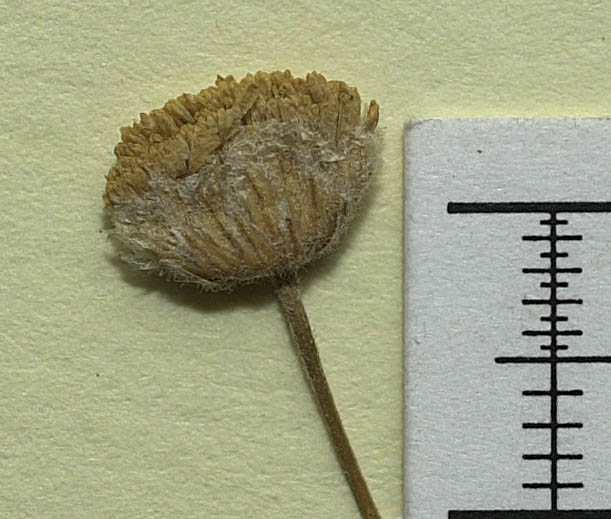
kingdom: Plantae
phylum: Tracheophyta
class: Magnoliopsida
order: Asterales
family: Asteraceae
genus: Xylanthemum
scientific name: Xylanthemum paghmanense
